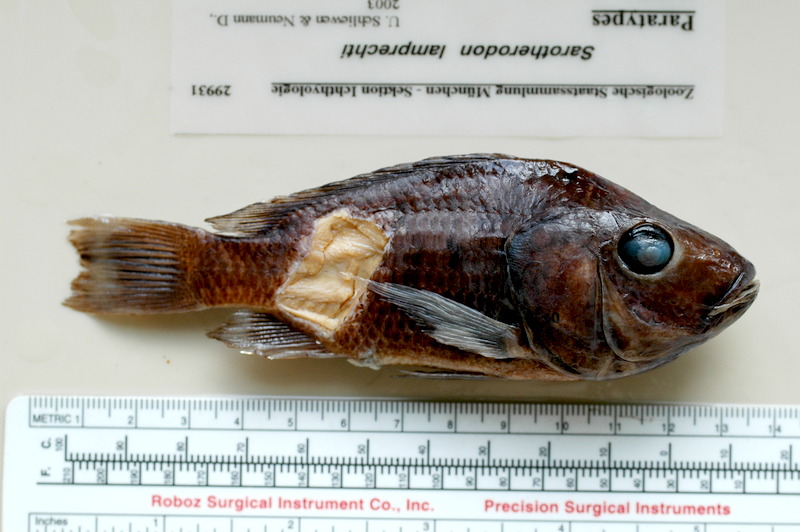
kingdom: Animalia
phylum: Chordata
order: Perciformes
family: Cichlidae
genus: Sarotherodon
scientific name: Sarotherodon lamprechti
